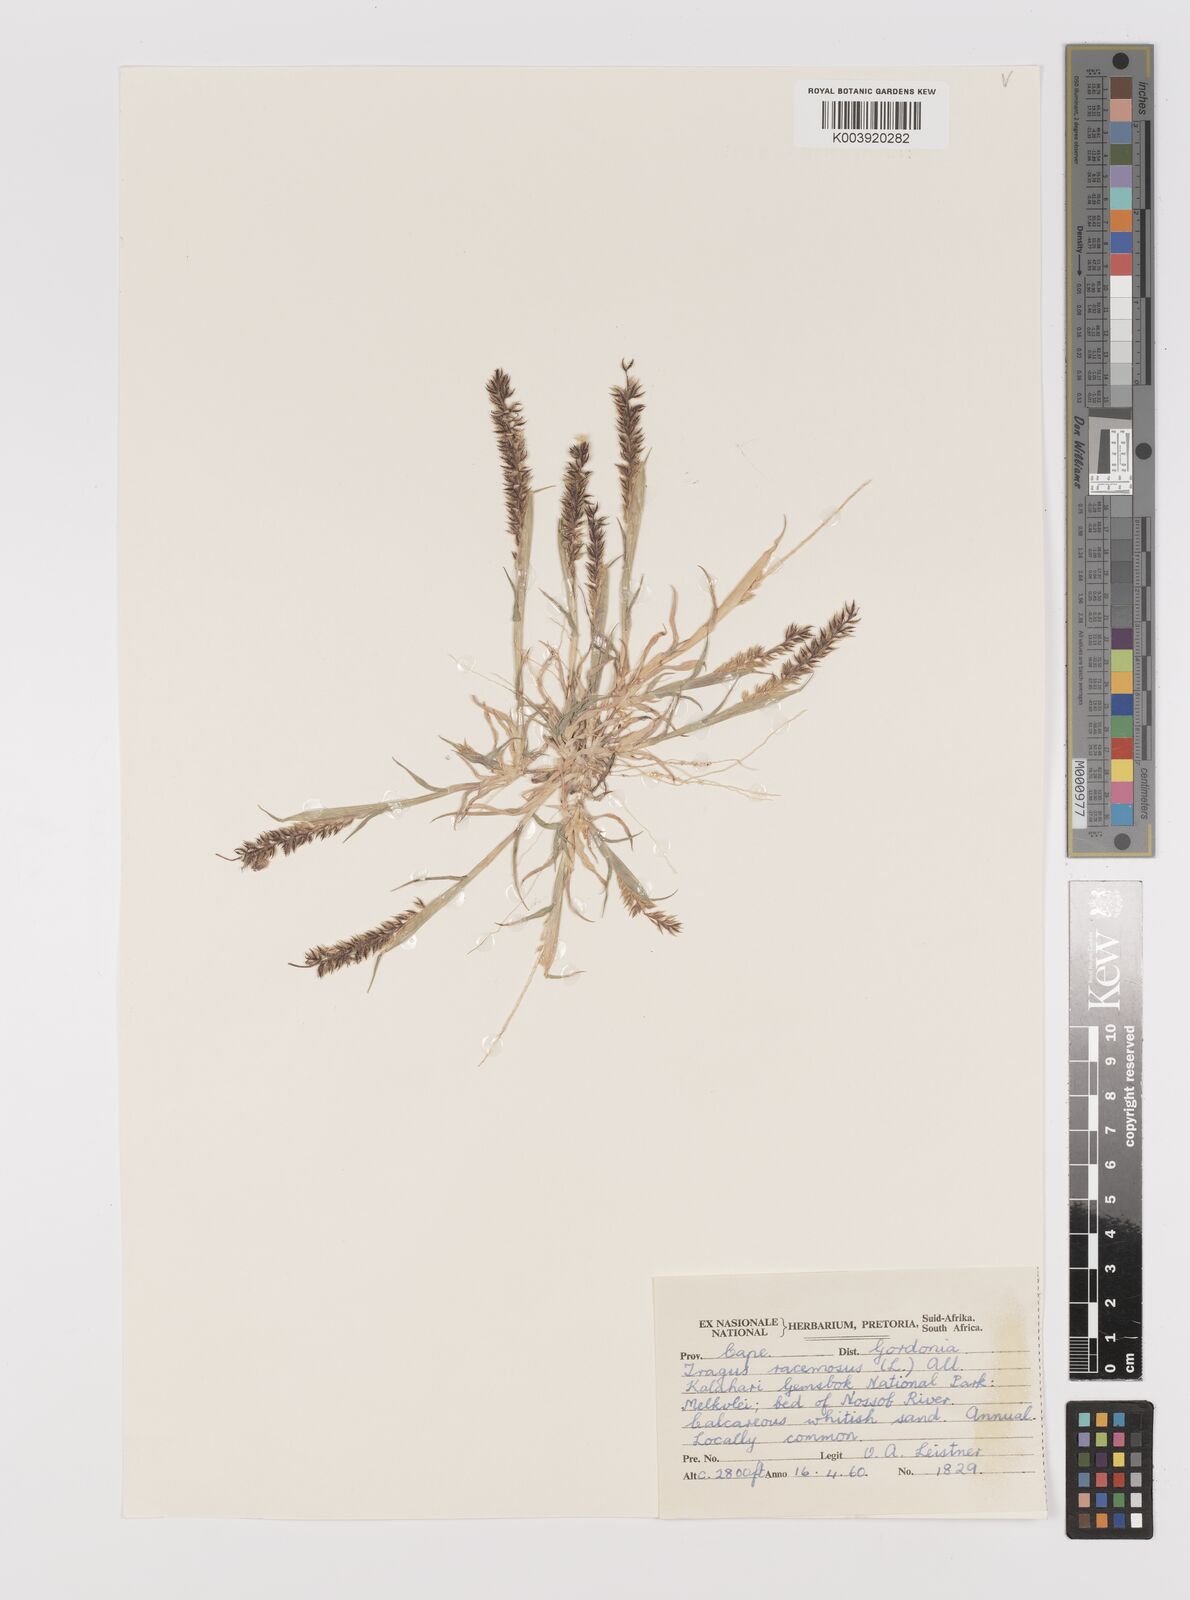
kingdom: Plantae
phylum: Tracheophyta
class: Liliopsida
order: Poales
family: Poaceae
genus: Tragus
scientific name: Tragus racemosus
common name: European bur-grass
